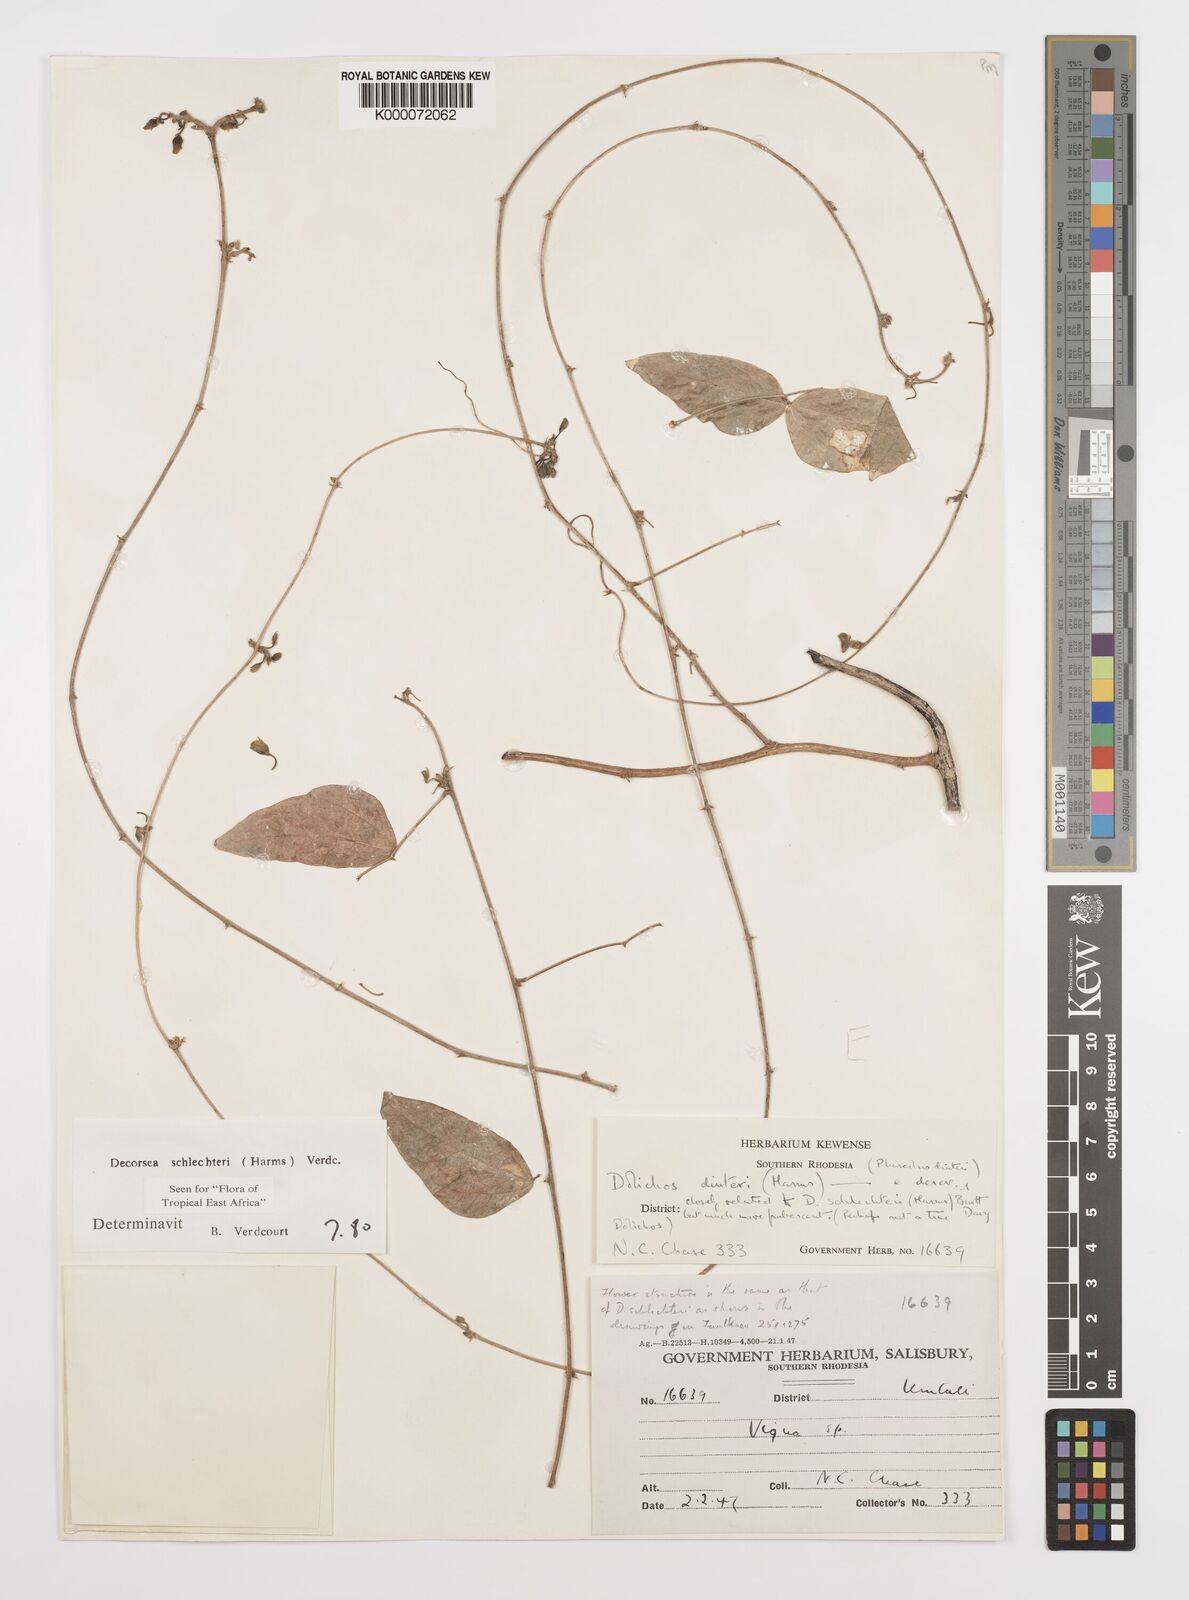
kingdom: Plantae
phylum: Tracheophyta
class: Magnoliopsida
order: Fabales
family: Fabaceae
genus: Decorsea
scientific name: Decorsea schlechteri
